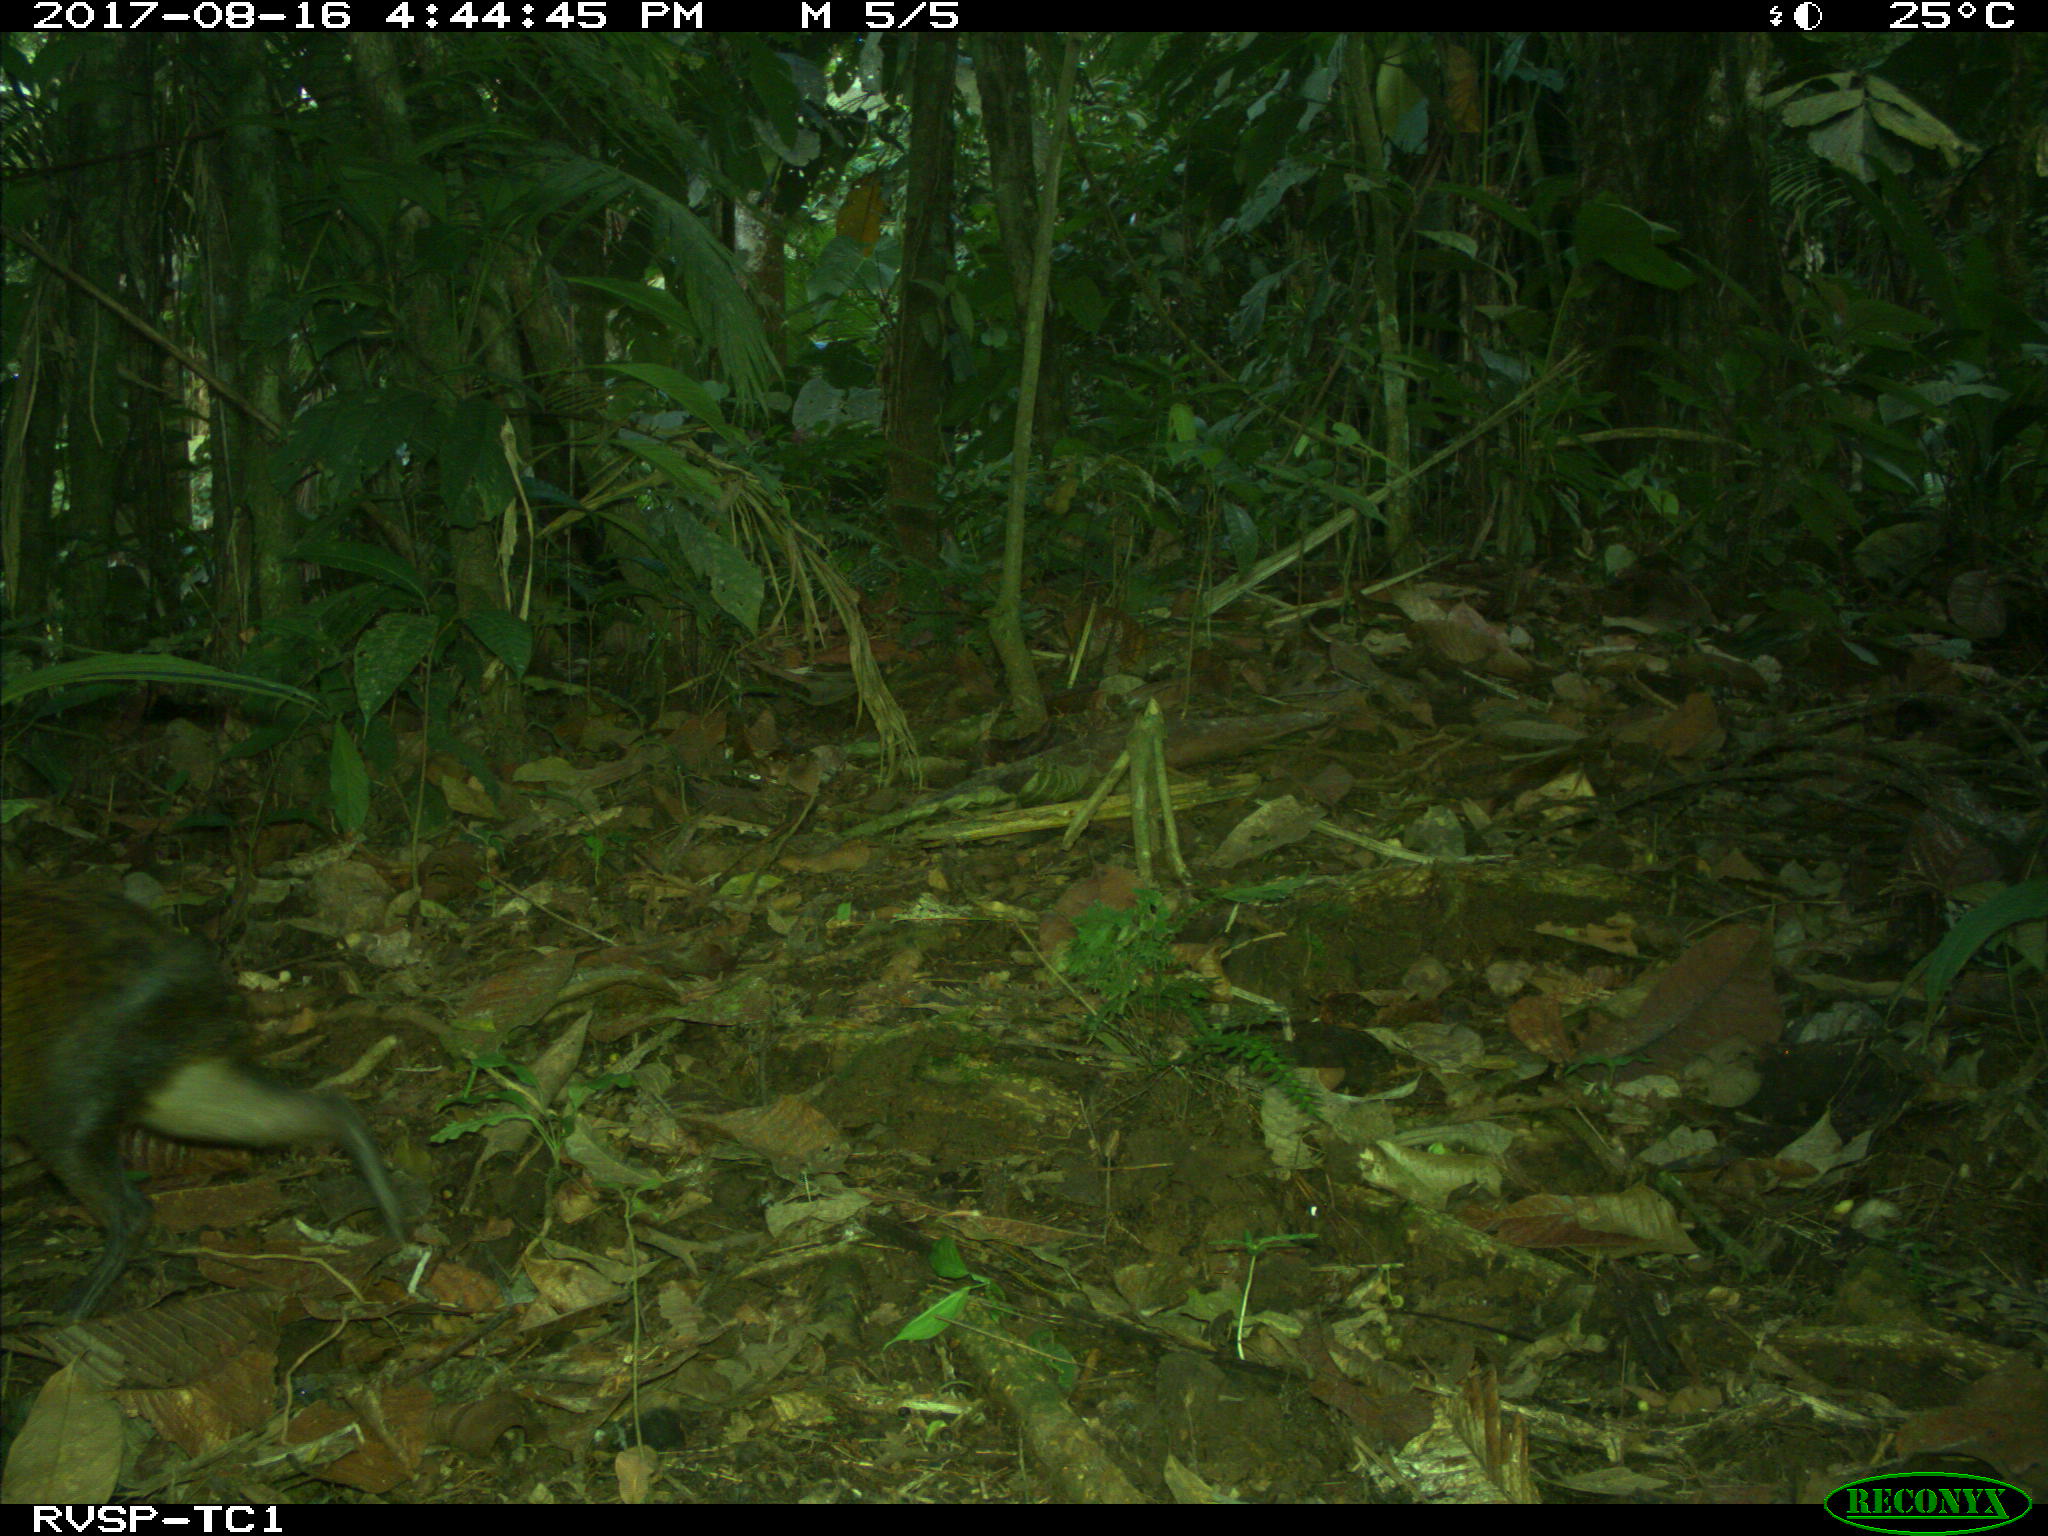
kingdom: Animalia
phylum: Chordata
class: Mammalia
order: Rodentia
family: Dasyproctidae
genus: Dasyprocta
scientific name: Dasyprocta punctata
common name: Central american agouti
